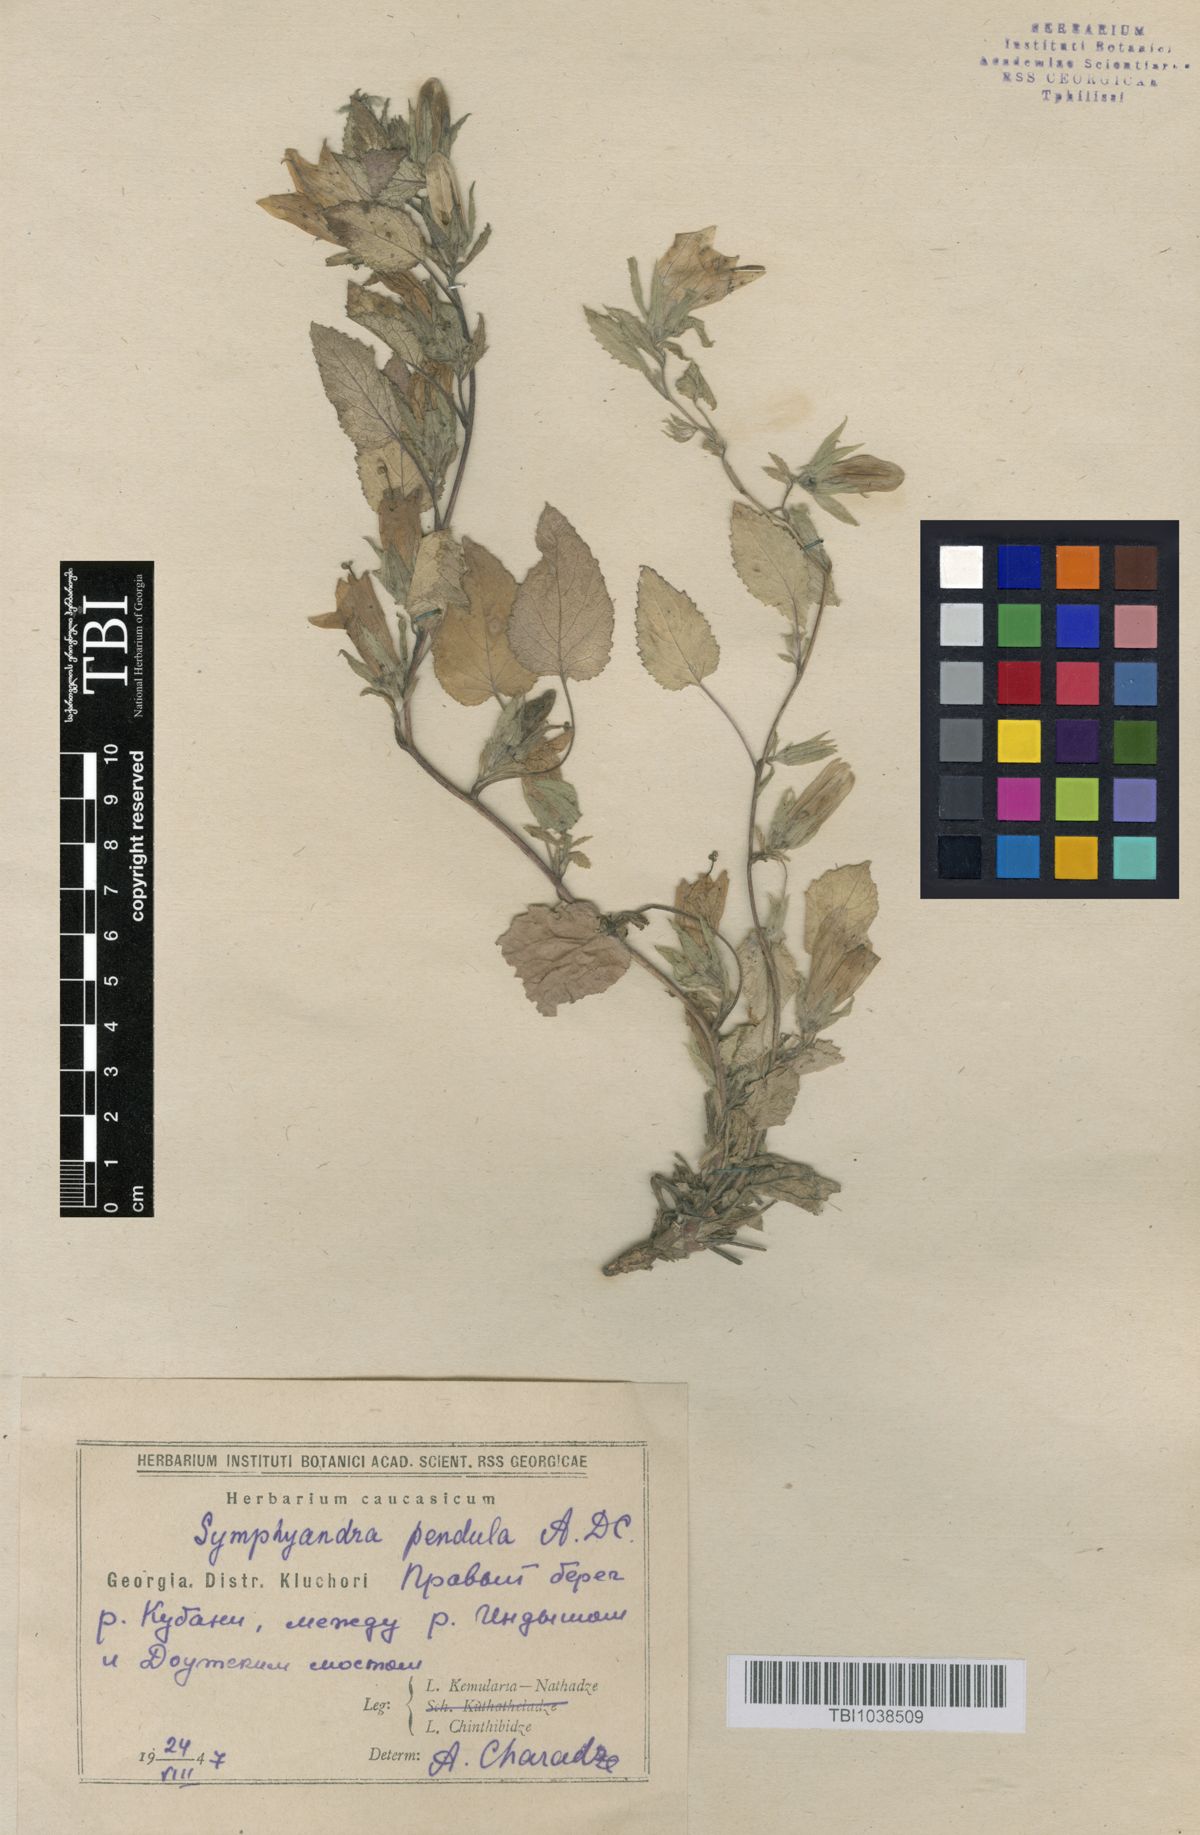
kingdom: Plantae
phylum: Tracheophyta
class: Magnoliopsida
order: Asterales
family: Campanulaceae
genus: Campanula
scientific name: Campanula pendula
